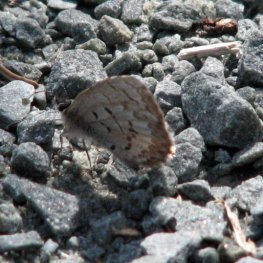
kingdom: Animalia
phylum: Arthropoda
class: Insecta
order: Lepidoptera
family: Lycaenidae
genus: Celastrina
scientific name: Celastrina lucia
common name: Northern Spring Azure
